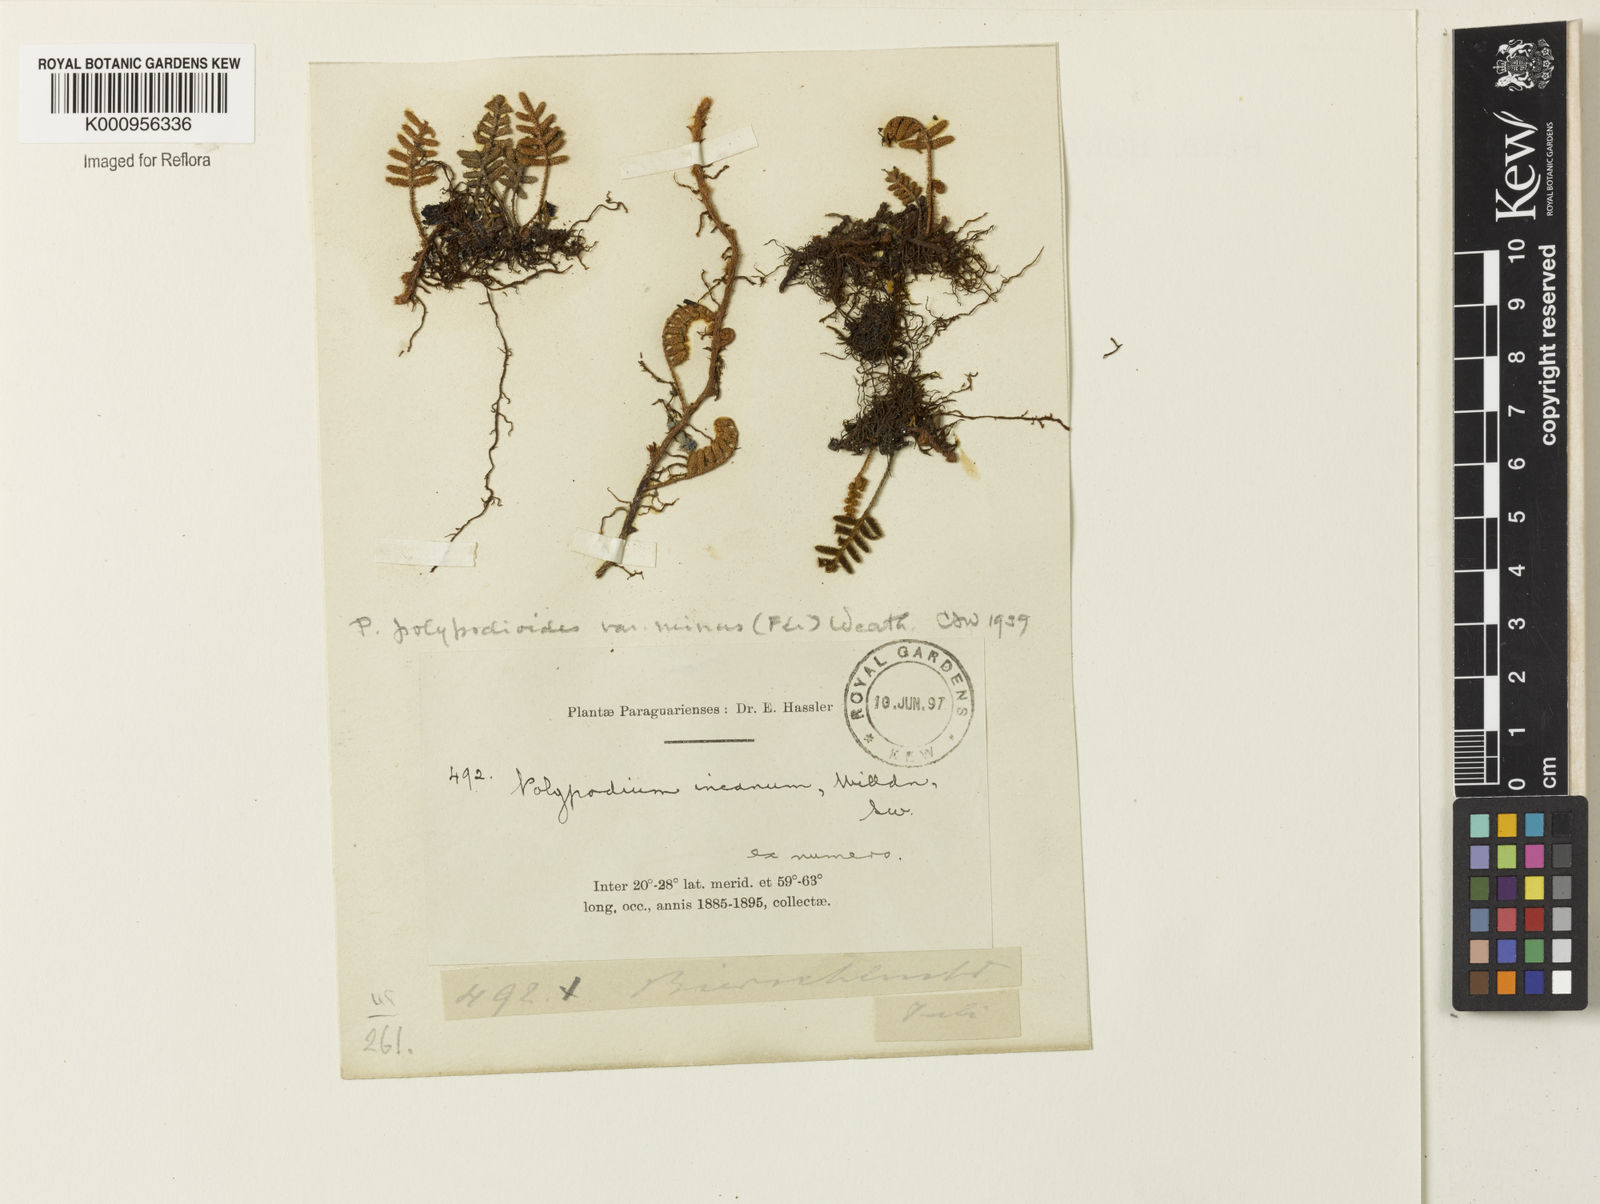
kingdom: Plantae
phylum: Tracheophyta
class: Polypodiopsida
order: Polypodiales
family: Polypodiaceae
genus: Pleopeltis
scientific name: Pleopeltis polypodioides
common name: Resurrection fern
